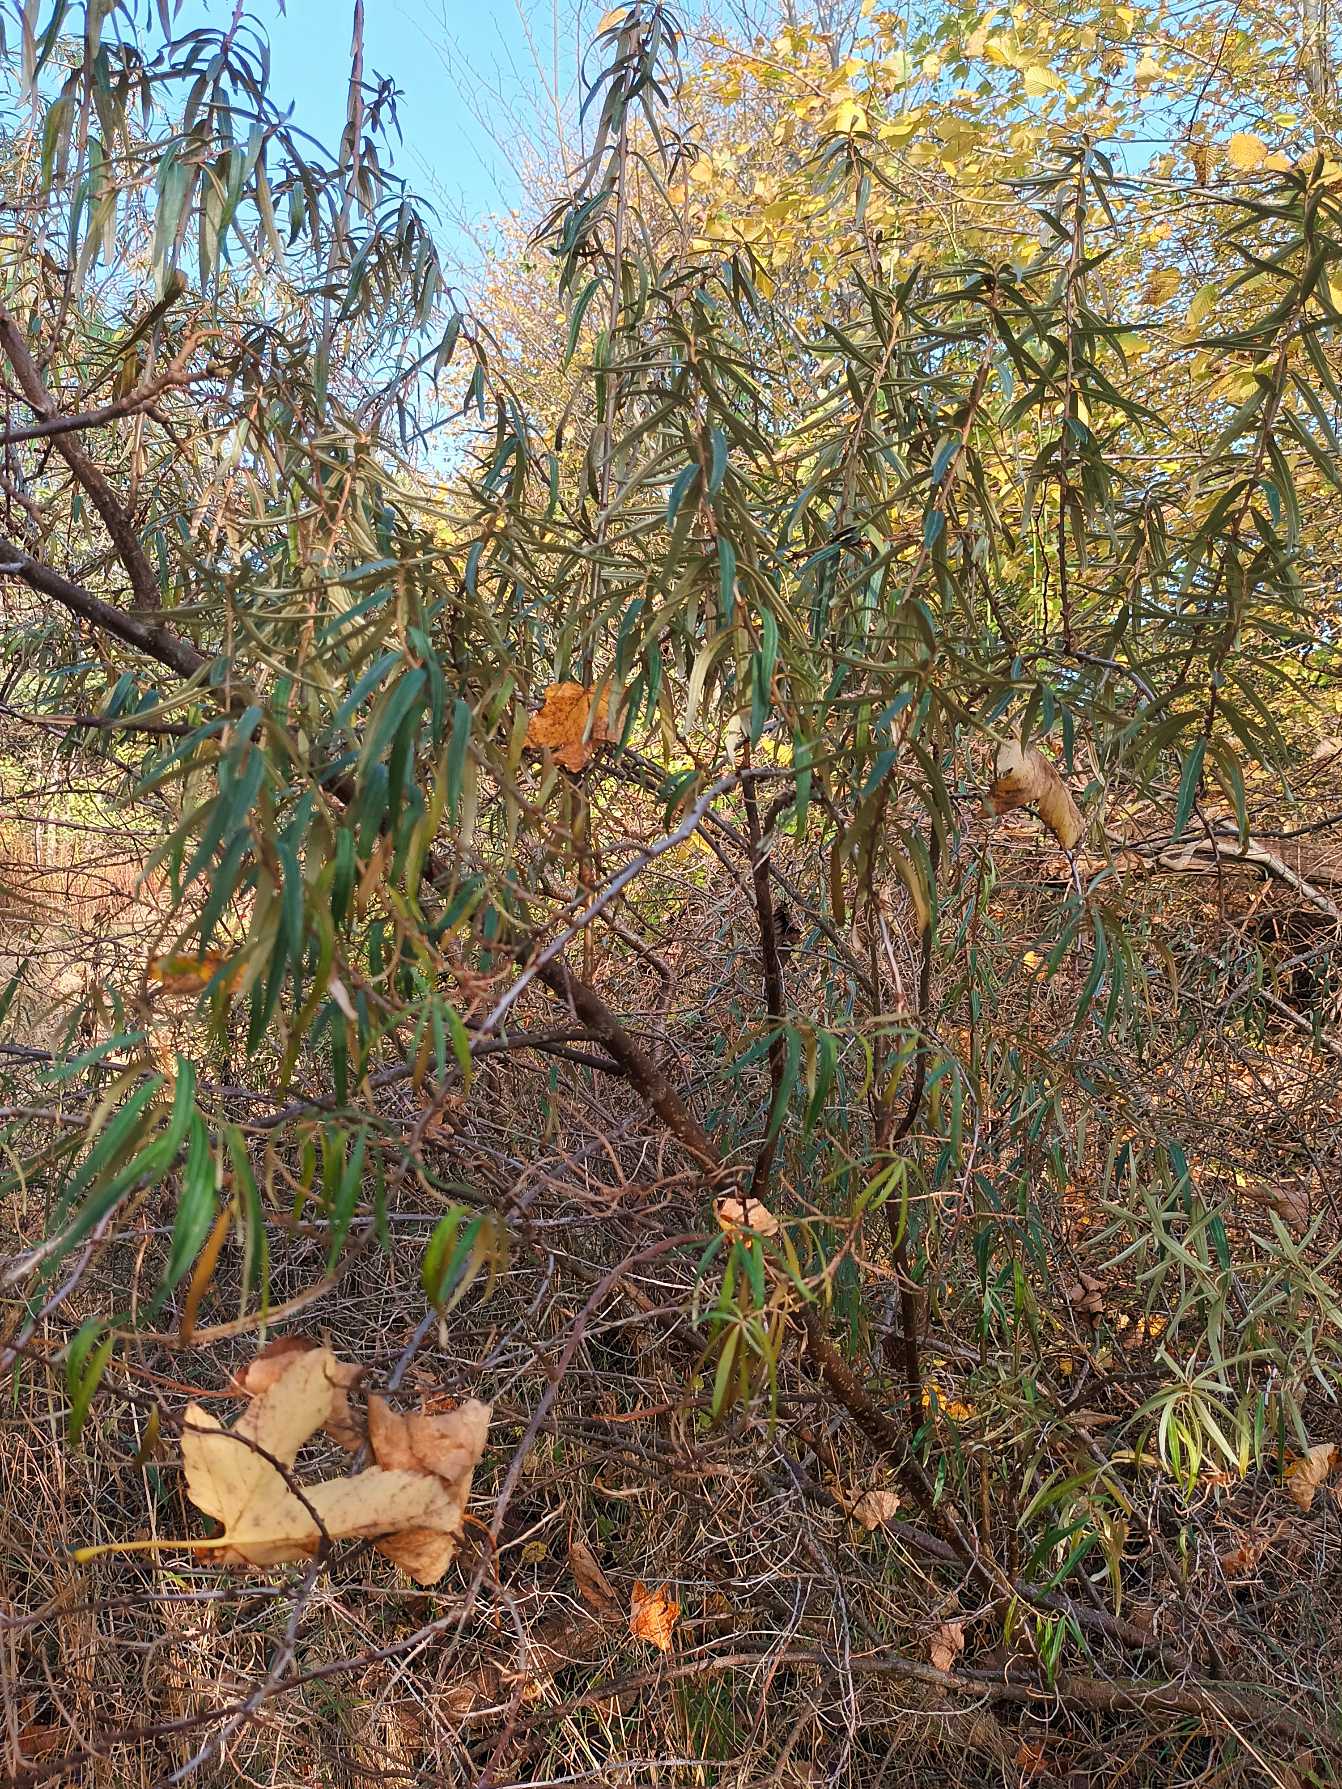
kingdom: Plantae
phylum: Tracheophyta
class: Magnoliopsida
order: Rosales
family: Elaeagnaceae
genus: Hippophae
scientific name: Hippophae rhamnoides
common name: Havtorn
